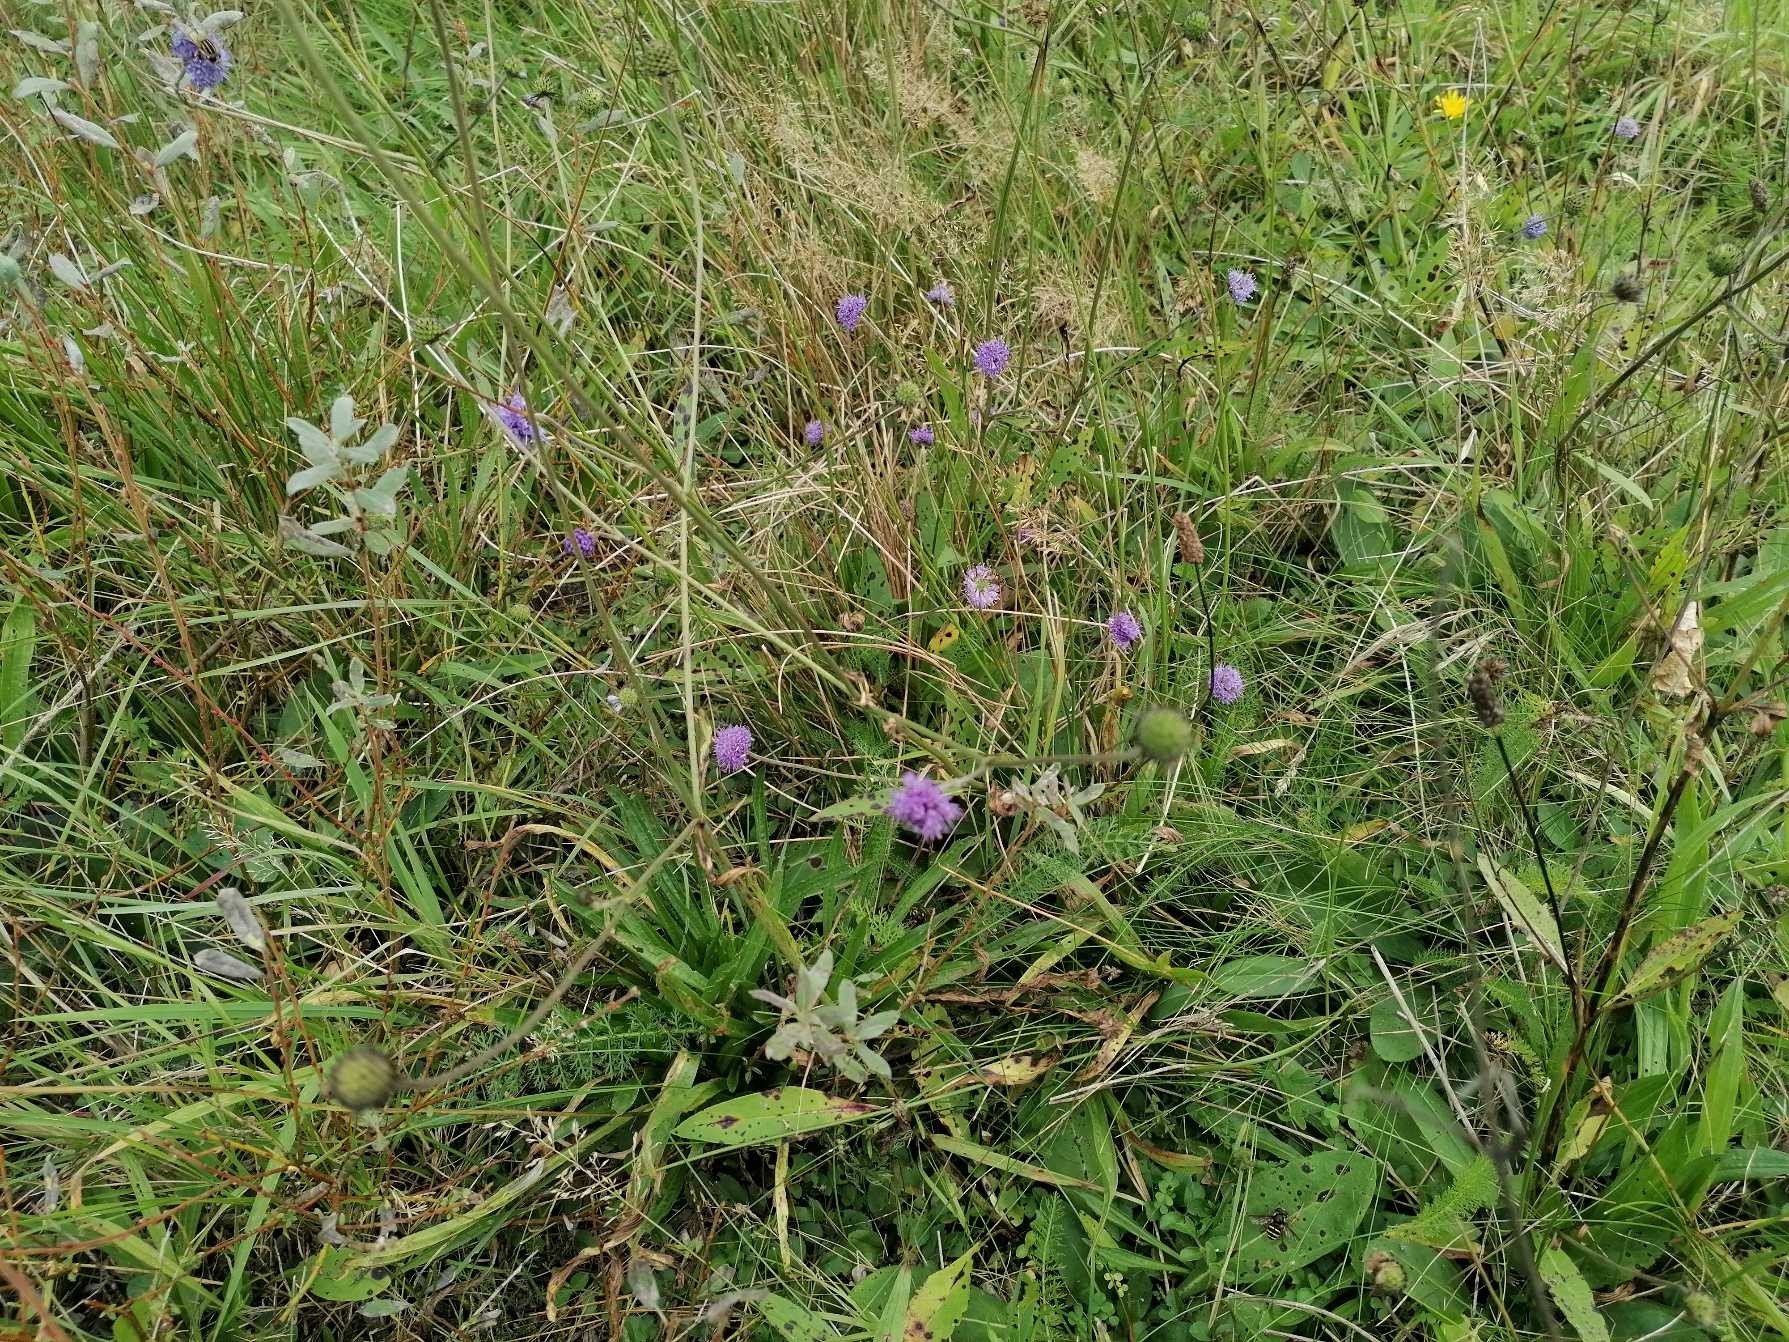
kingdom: Plantae
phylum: Tracheophyta
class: Magnoliopsida
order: Dipsacales
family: Caprifoliaceae
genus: Succisa
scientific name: Succisa pratensis
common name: Djævelsbid
